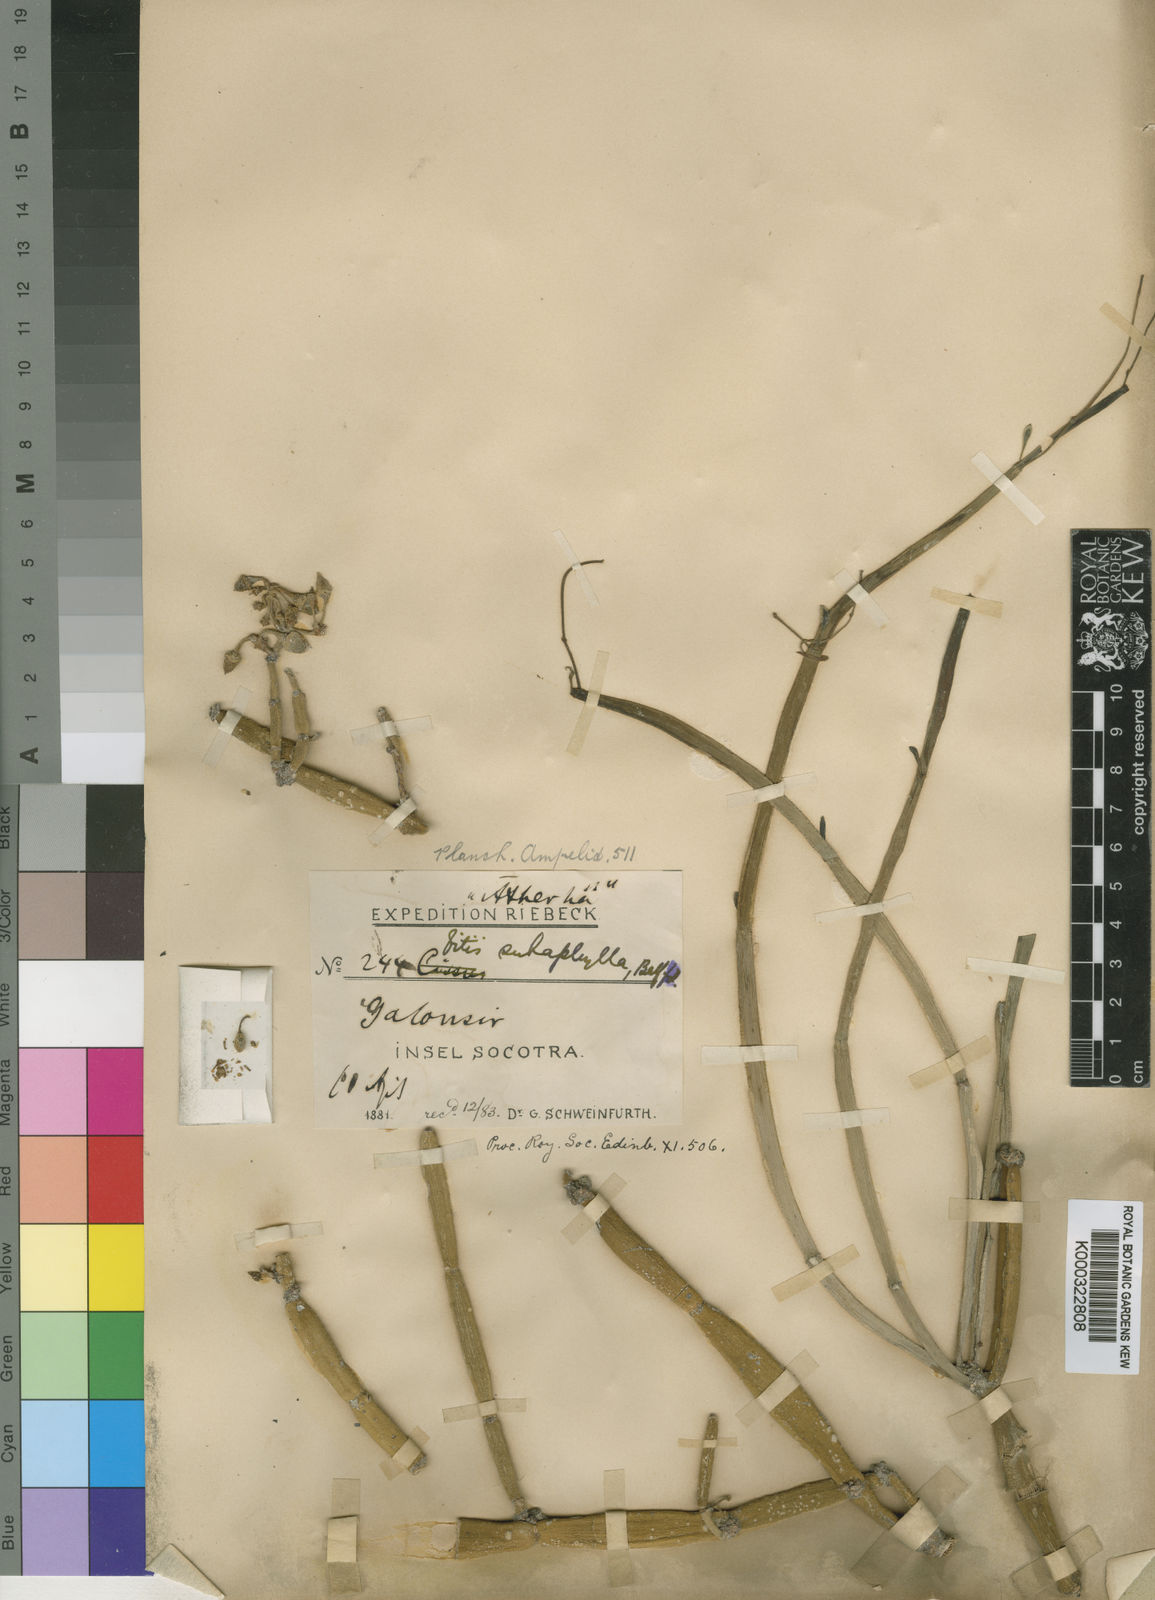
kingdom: Plantae
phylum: Tracheophyta
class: Magnoliopsida
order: Vitales
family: Vitaceae
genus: Cissus
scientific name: Cissus subaphylla
